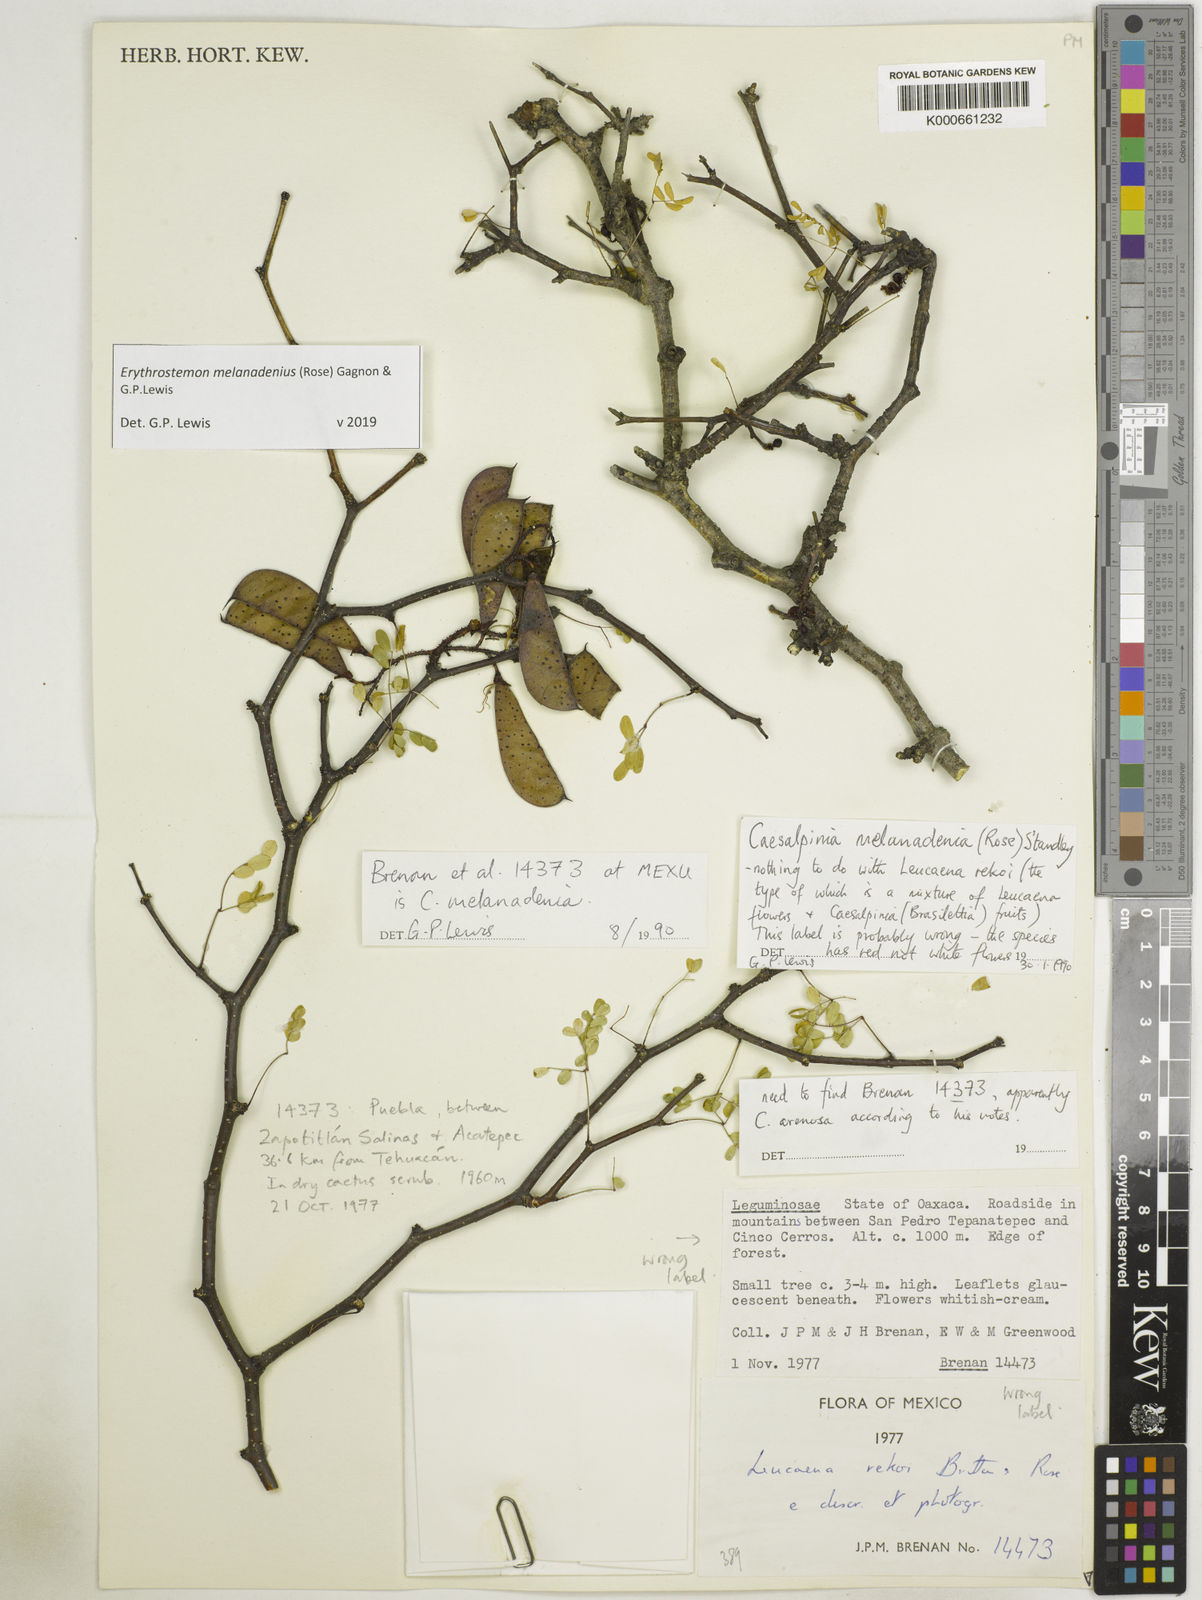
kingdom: Plantae
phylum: Tracheophyta
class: Magnoliopsida
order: Fabales
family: Fabaceae
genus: Erythrostemon
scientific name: Erythrostemon melanadenius
